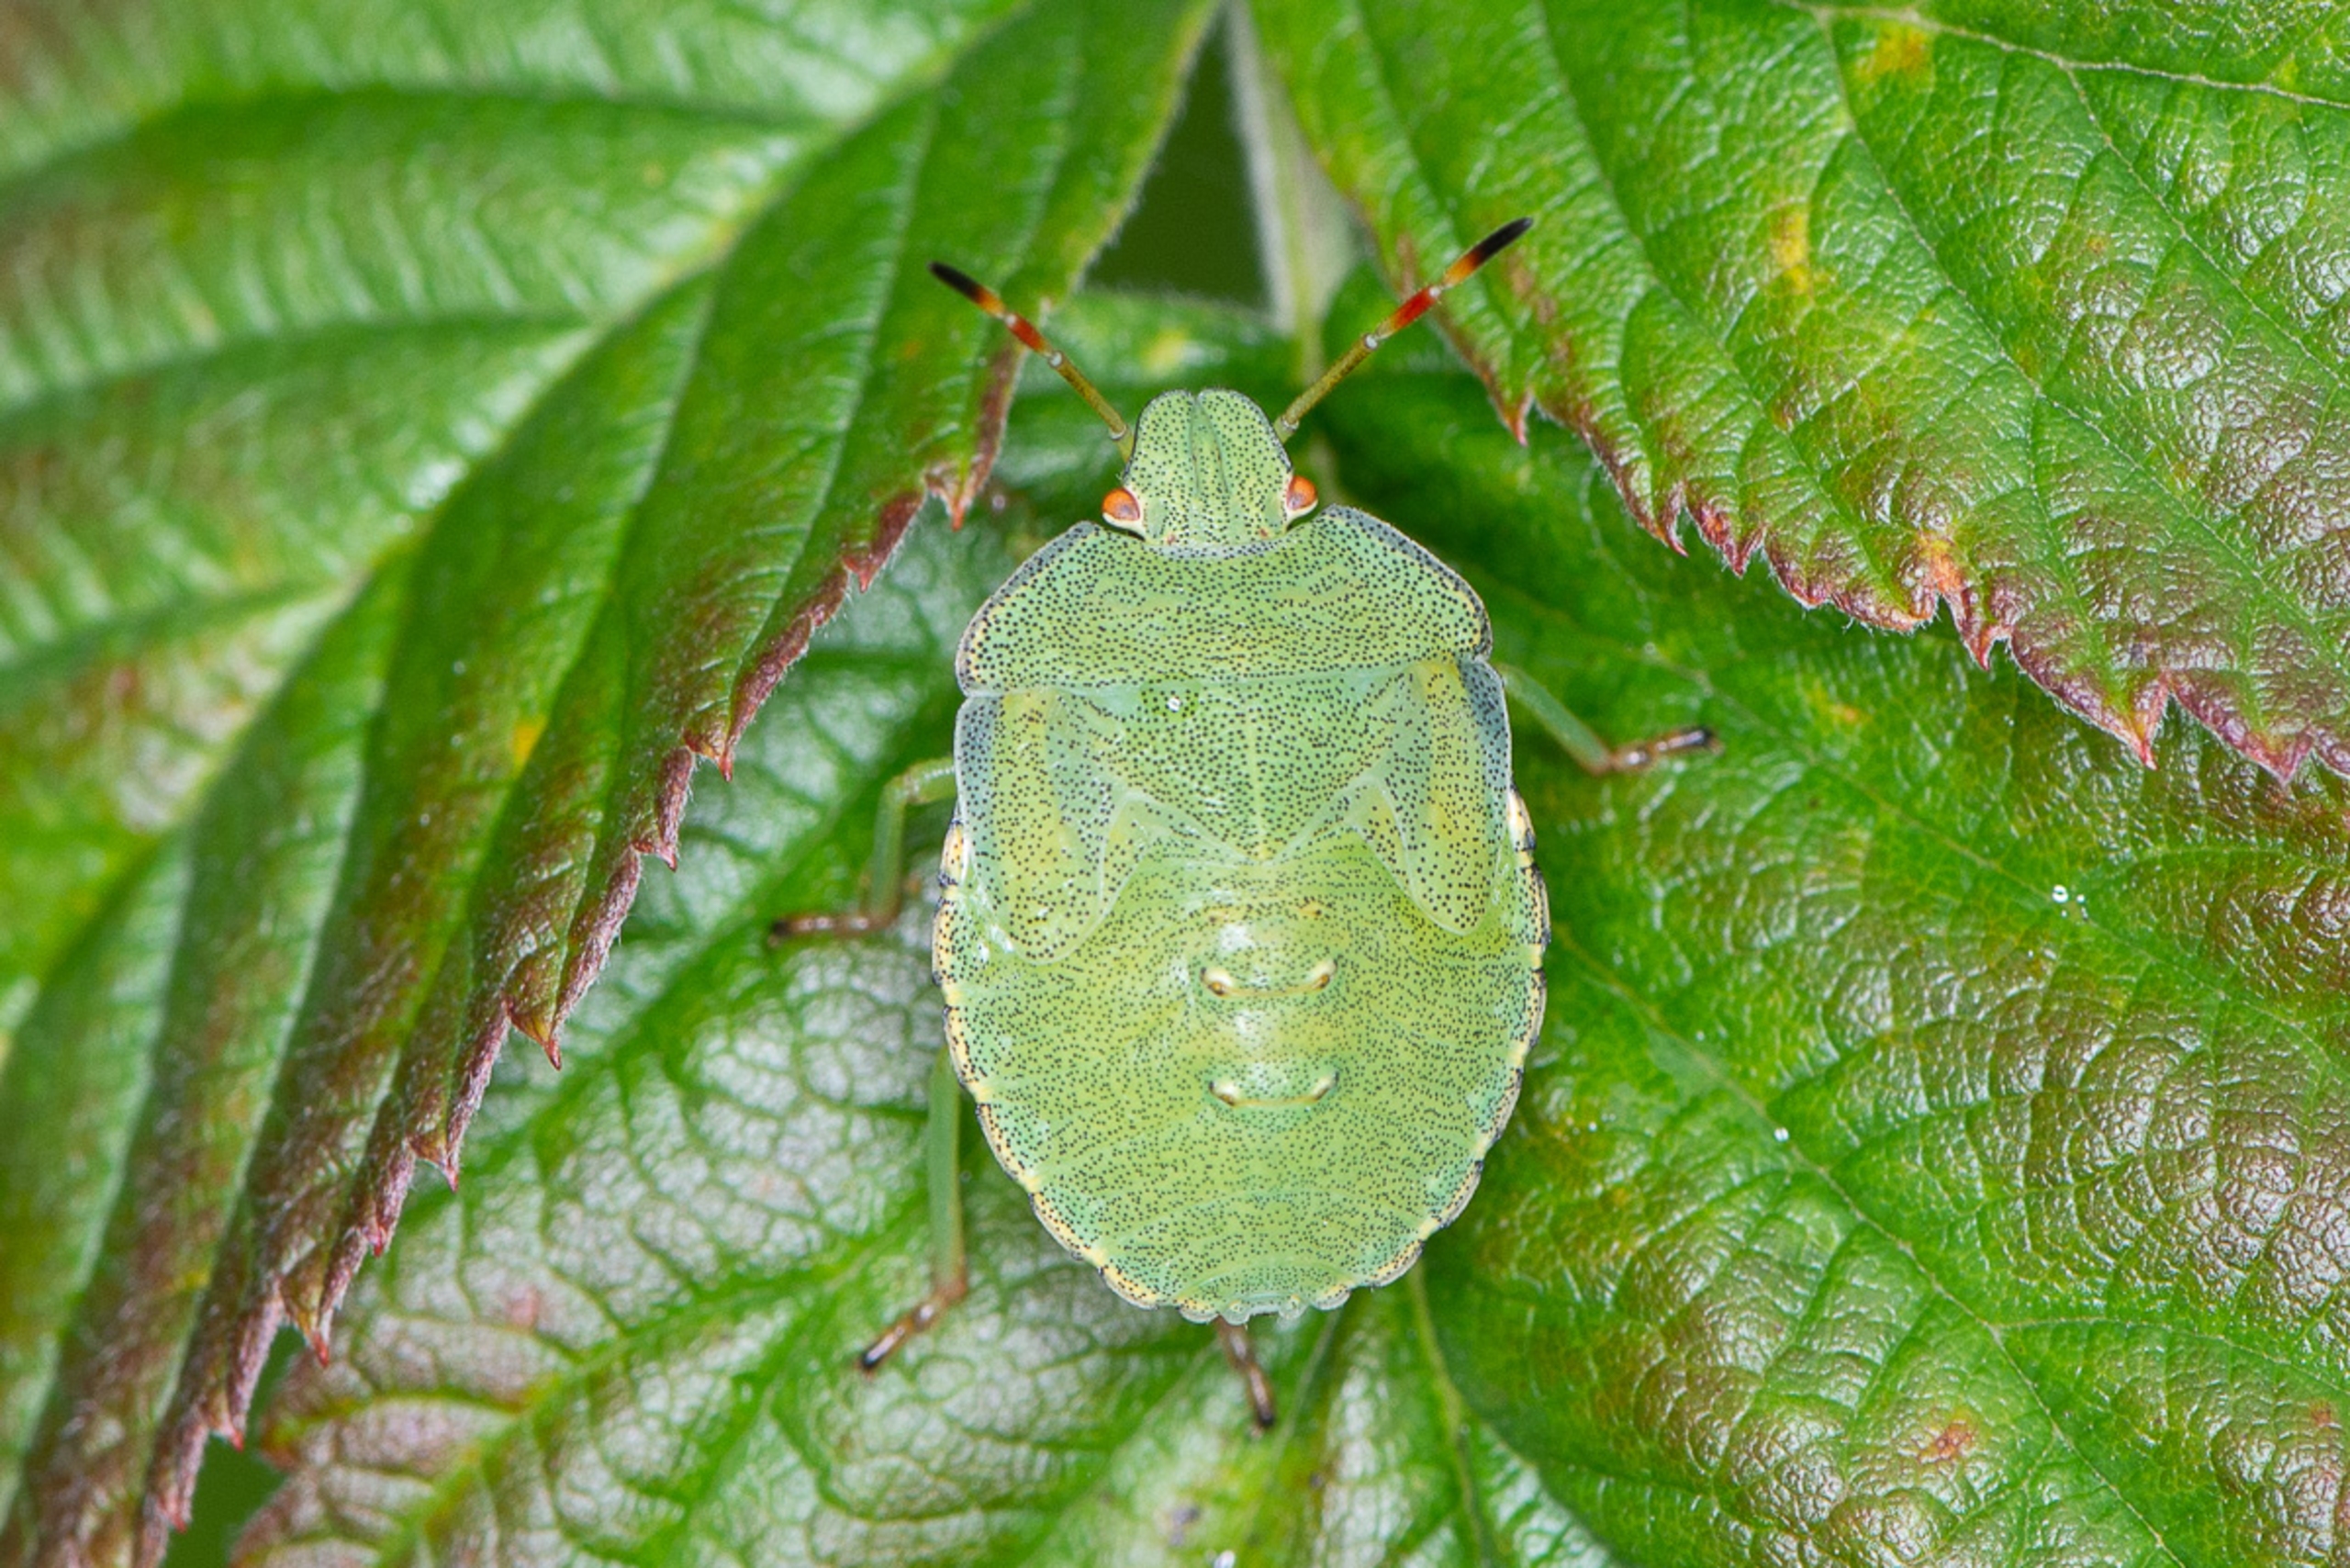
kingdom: Animalia
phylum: Arthropoda
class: Insecta
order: Hemiptera
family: Pentatomidae
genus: Palomena
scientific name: Palomena prasina
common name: Grøn bredtæge
